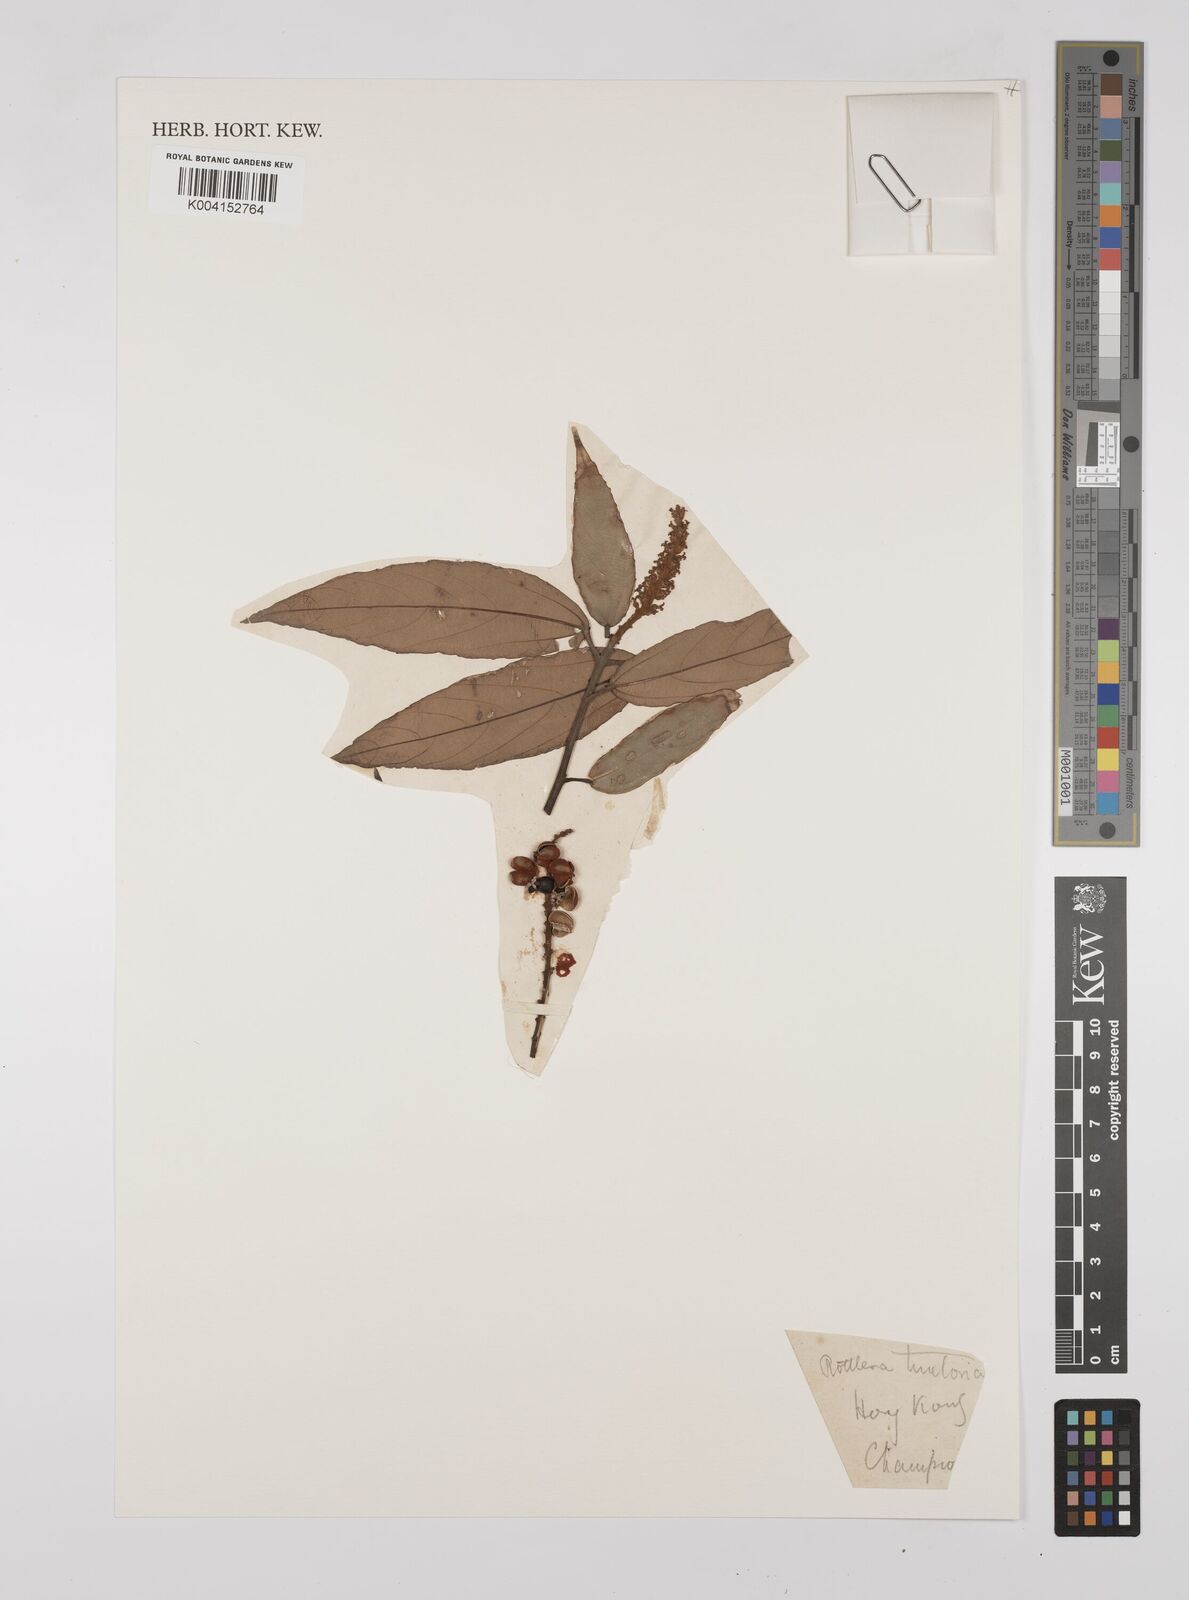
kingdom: Plantae
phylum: Tracheophyta
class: Magnoliopsida
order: Malpighiales
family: Euphorbiaceae
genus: Mallotus
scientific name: Mallotus philippensis
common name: Kamala tree
